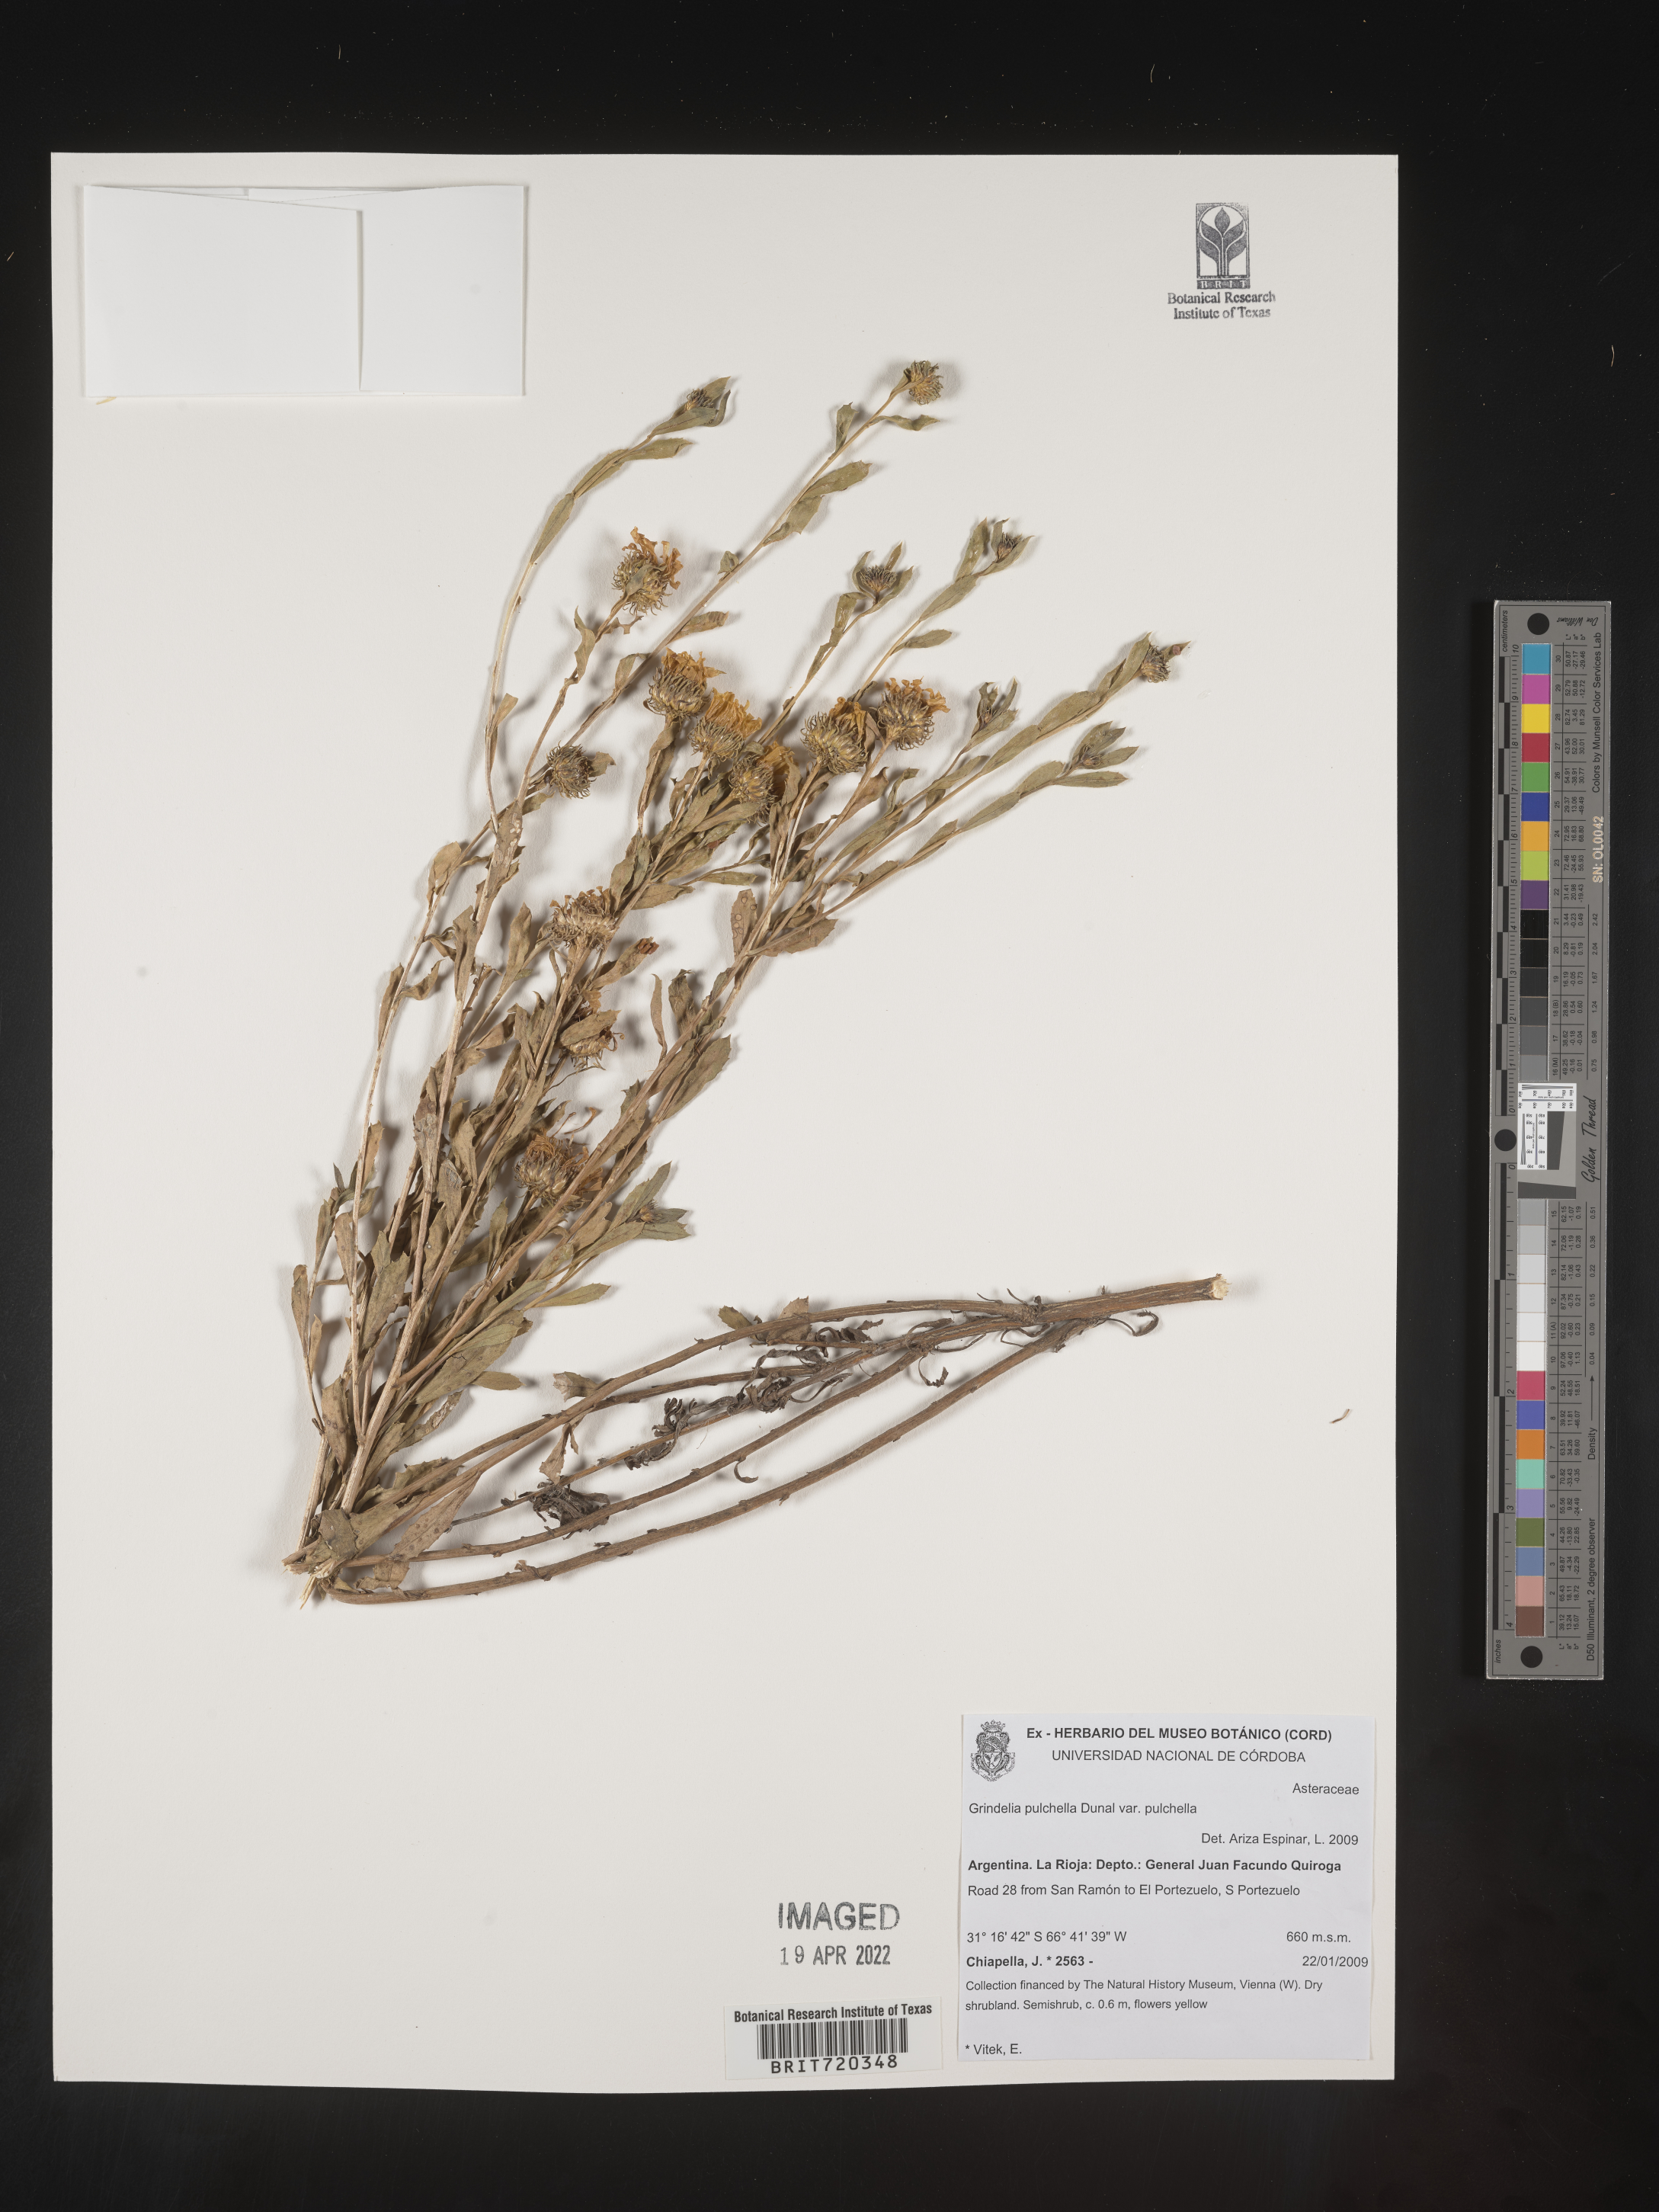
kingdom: Plantae
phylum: Tracheophyta
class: Magnoliopsida
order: Asterales
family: Asteraceae
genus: Grindelia
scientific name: Grindelia
